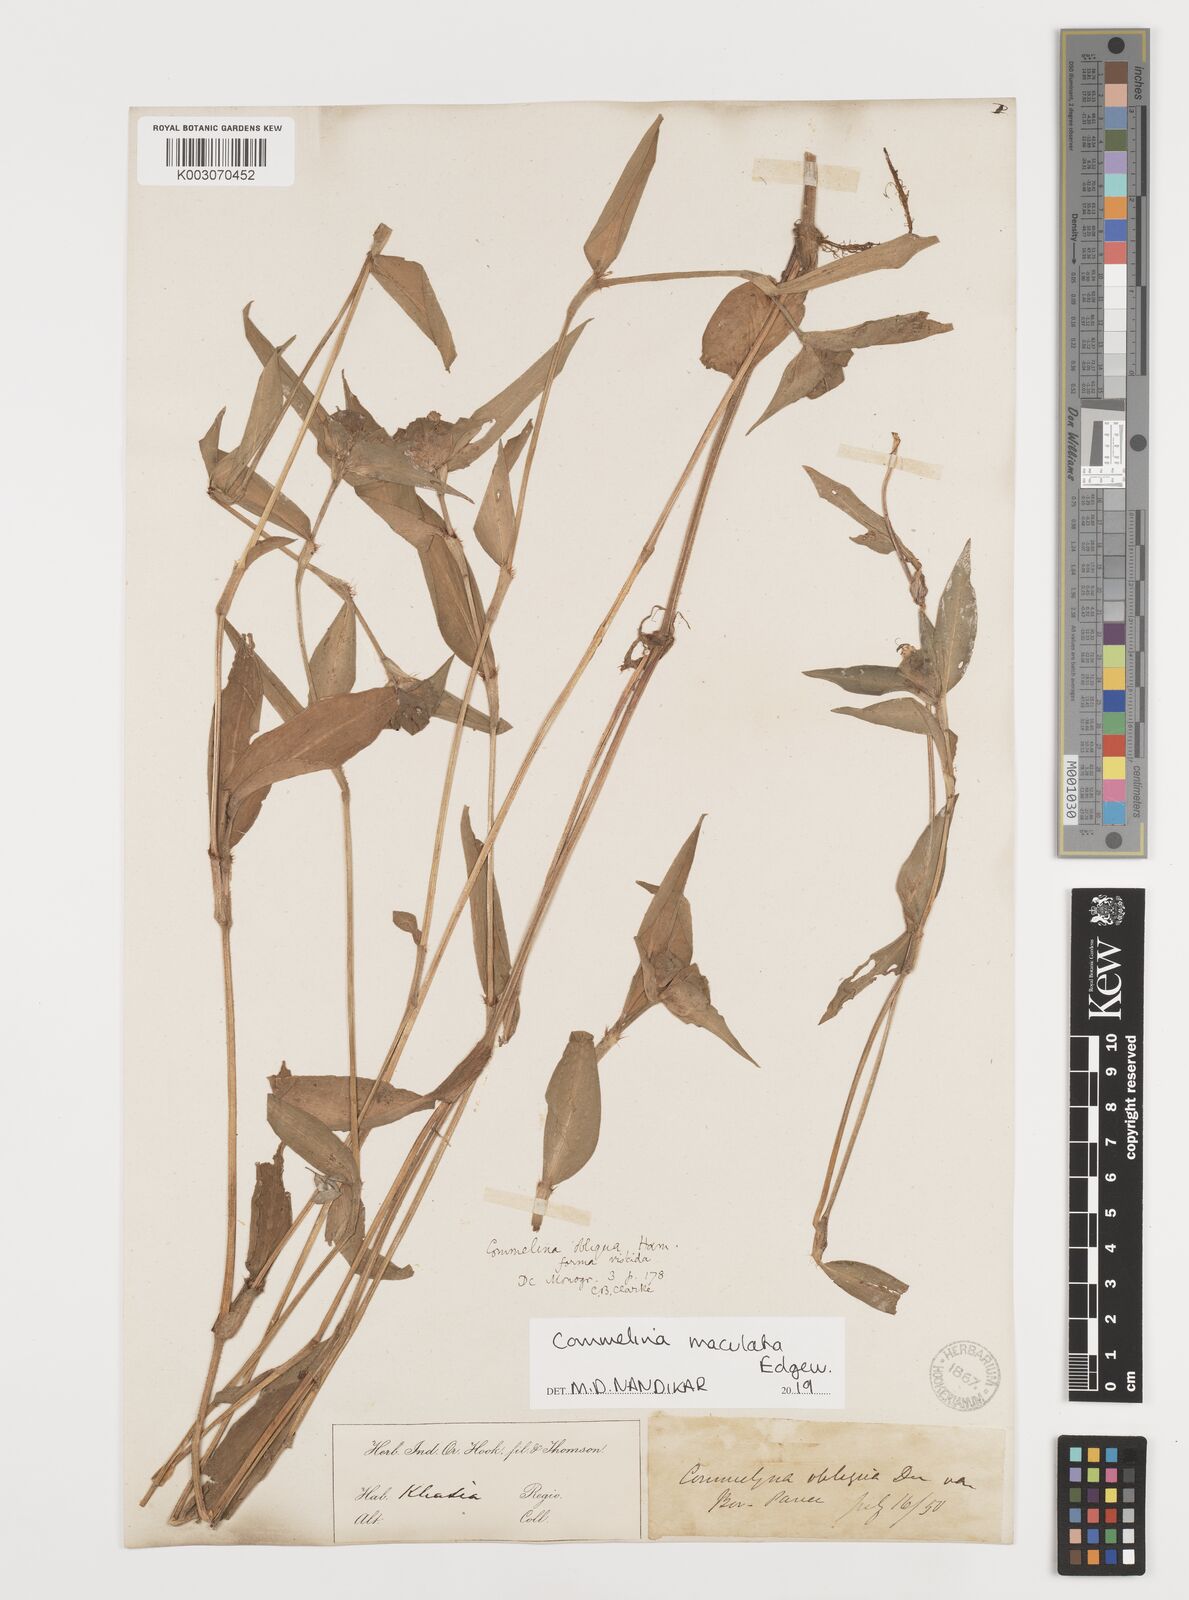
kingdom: Plantae
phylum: Tracheophyta
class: Liliopsida
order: Commelinales
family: Commelinaceae
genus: Commelina
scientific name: Commelina maculata
